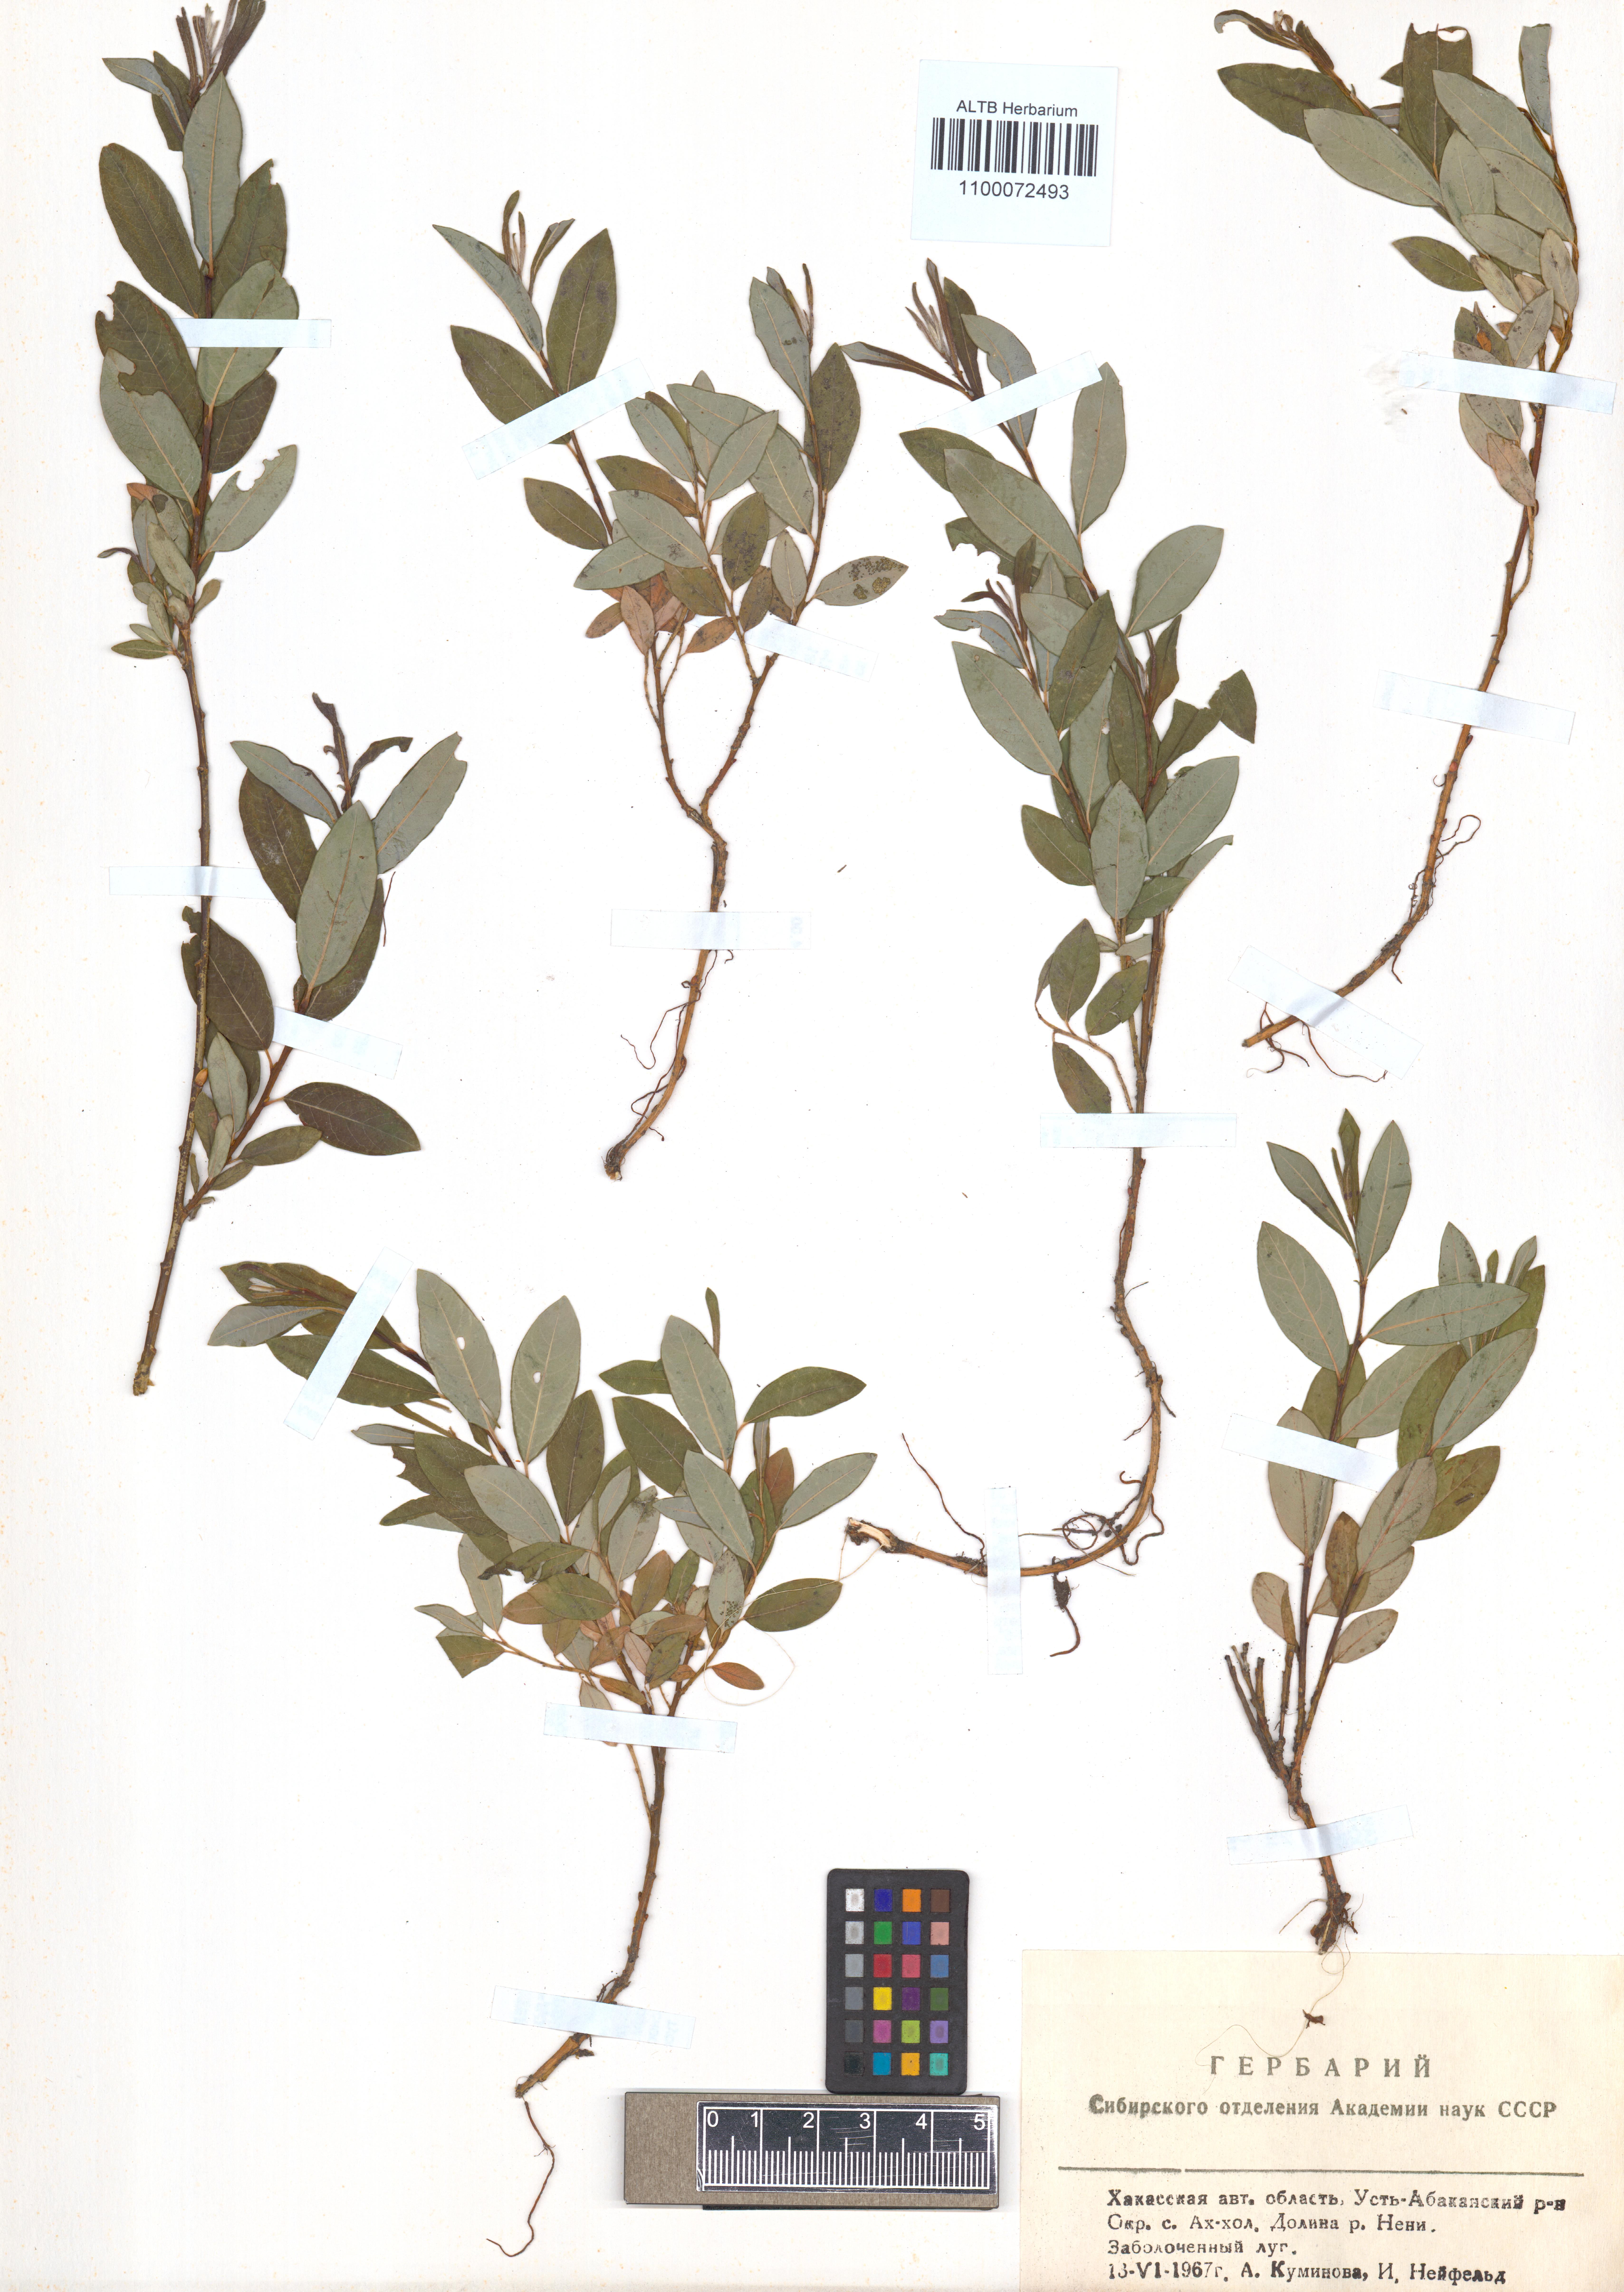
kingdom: Plantae
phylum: Tracheophyta
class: Magnoliopsida
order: Malpighiales
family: Salicaceae
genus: Salix
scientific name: Salix caesia
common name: Blue willow
